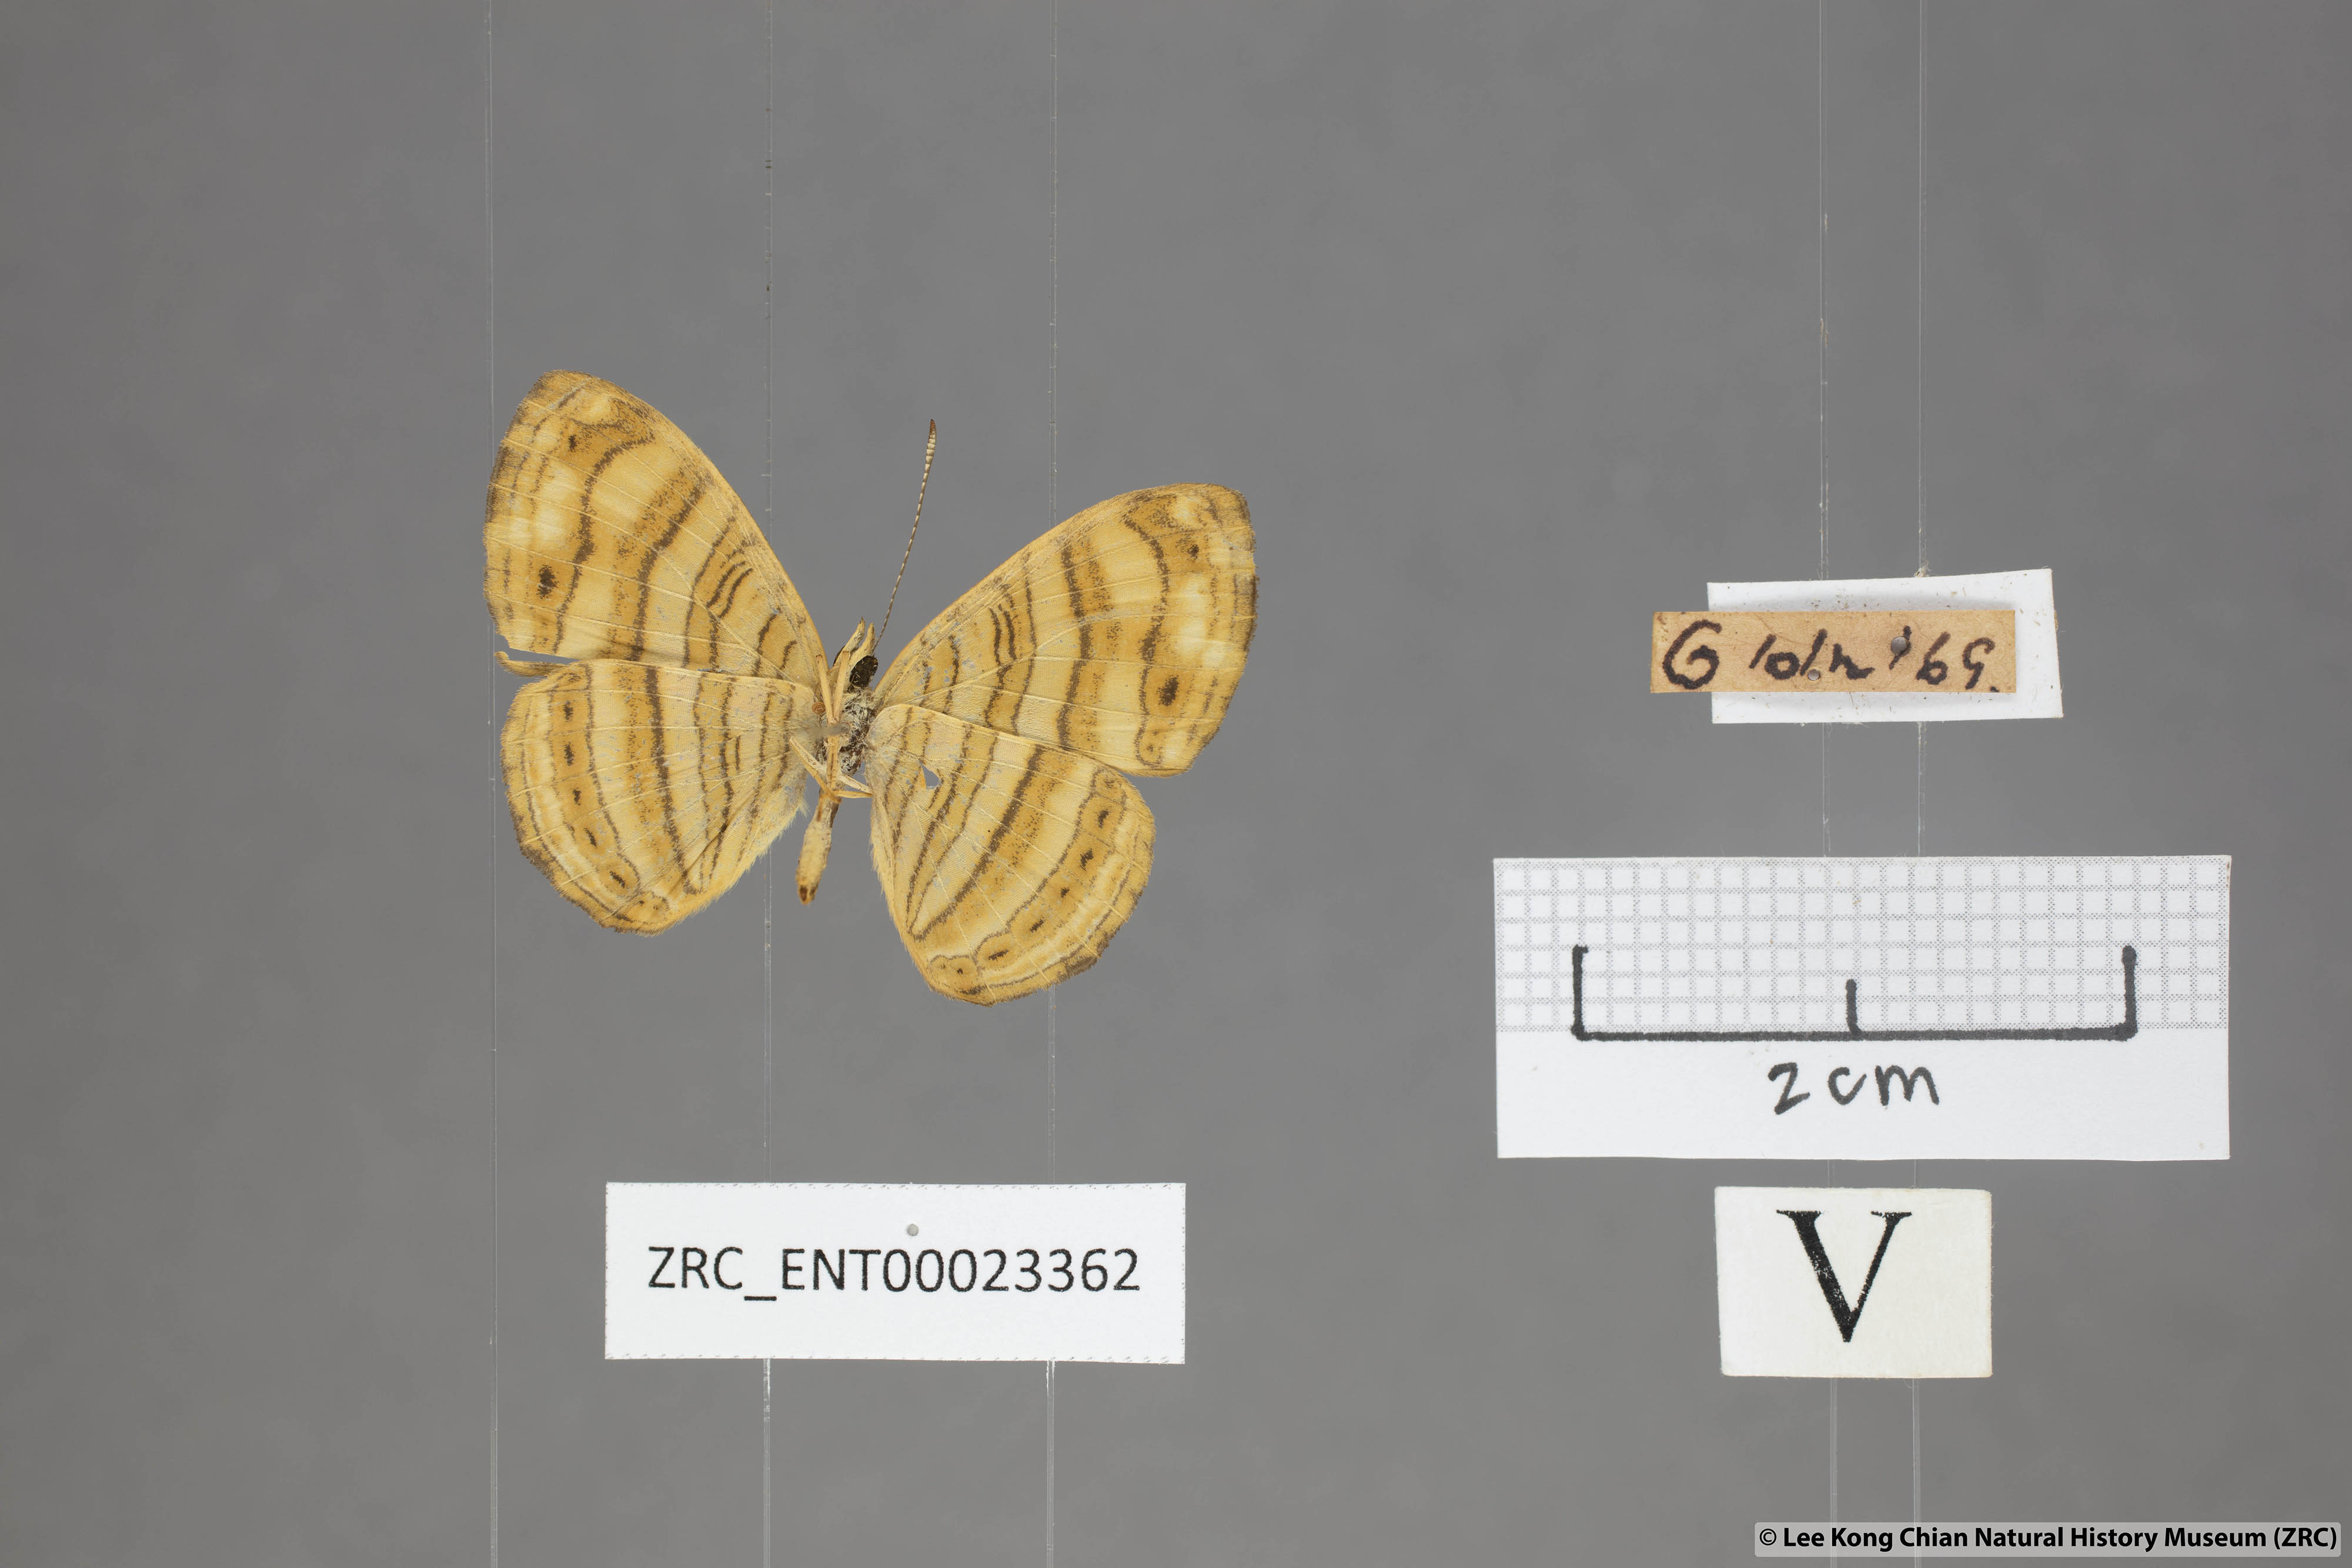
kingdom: Animalia
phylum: Arthropoda
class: Insecta
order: Lepidoptera
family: Nymphalidae
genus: Chersonesia
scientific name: Chersonesia peraka
